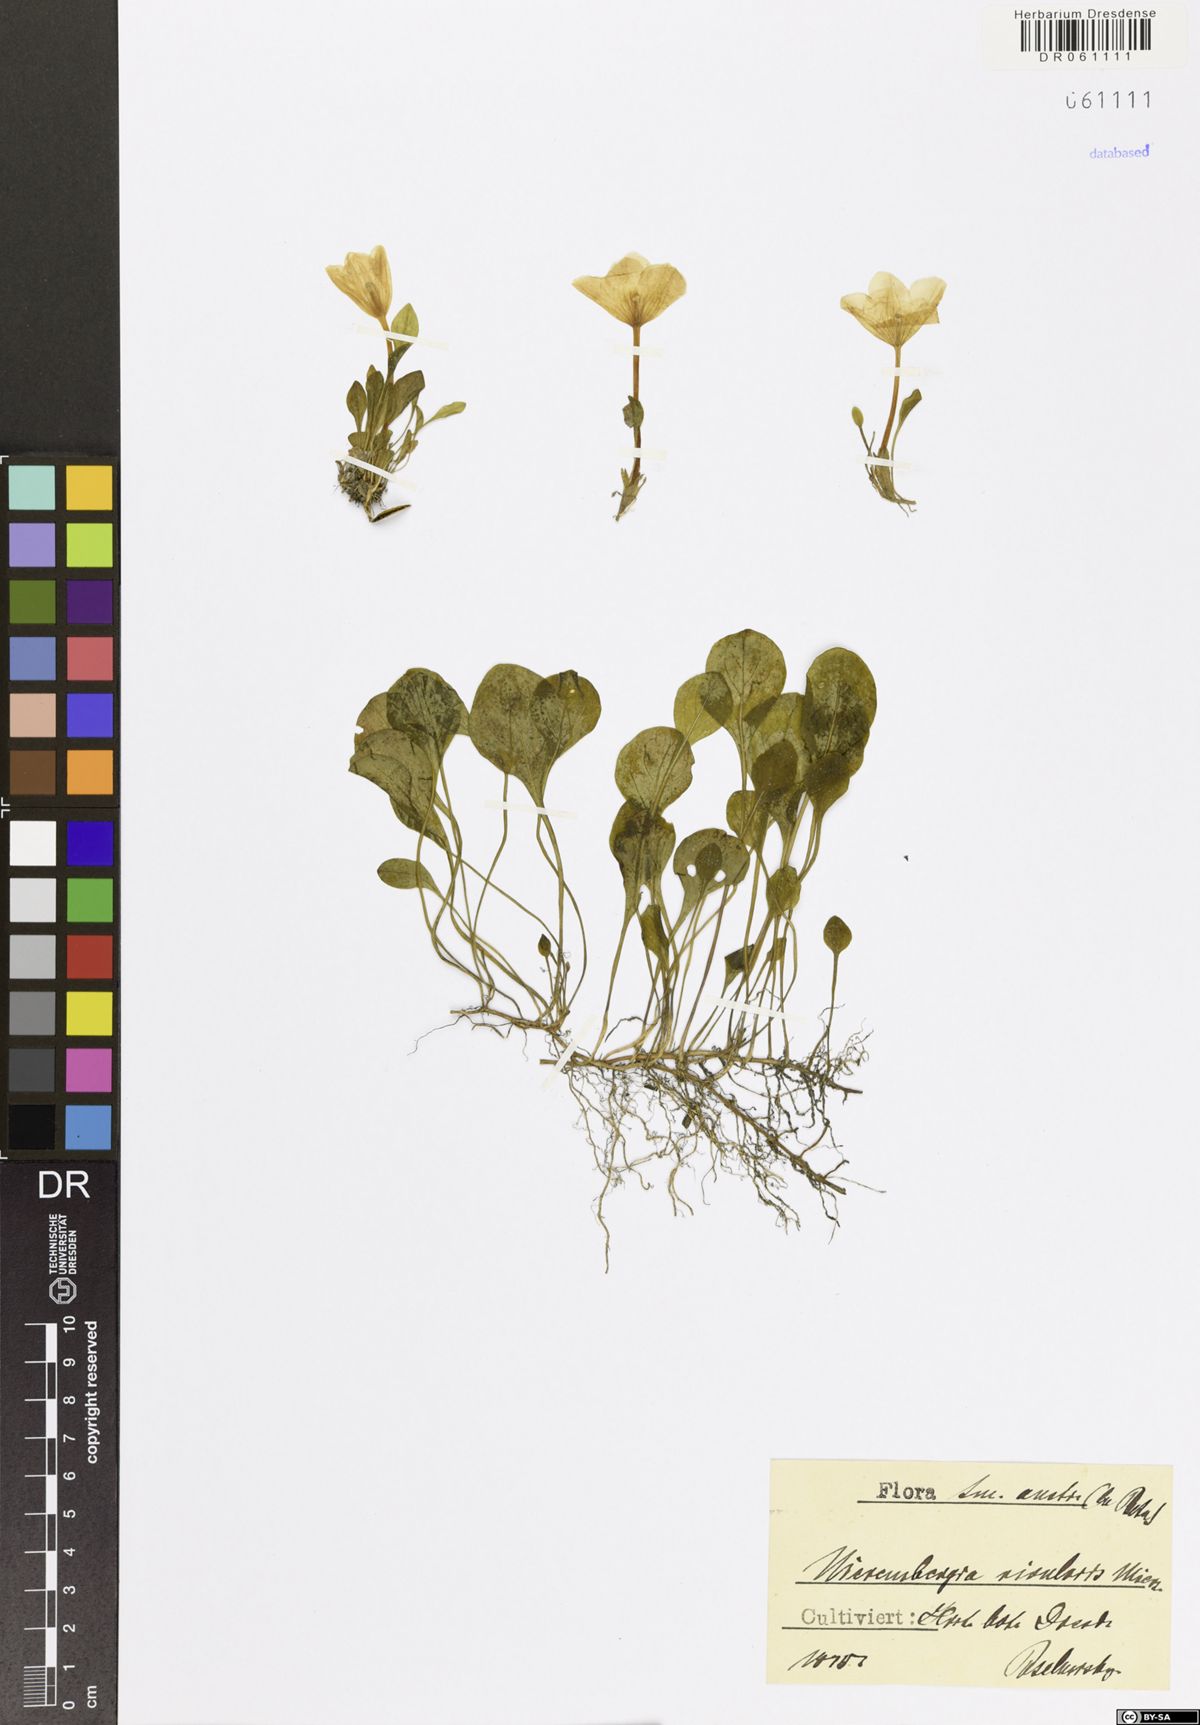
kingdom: Plantae
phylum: Tracheophyta
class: Magnoliopsida
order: Solanales
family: Solanaceae
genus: Nierembergia
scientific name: Nierembergia rivularis
